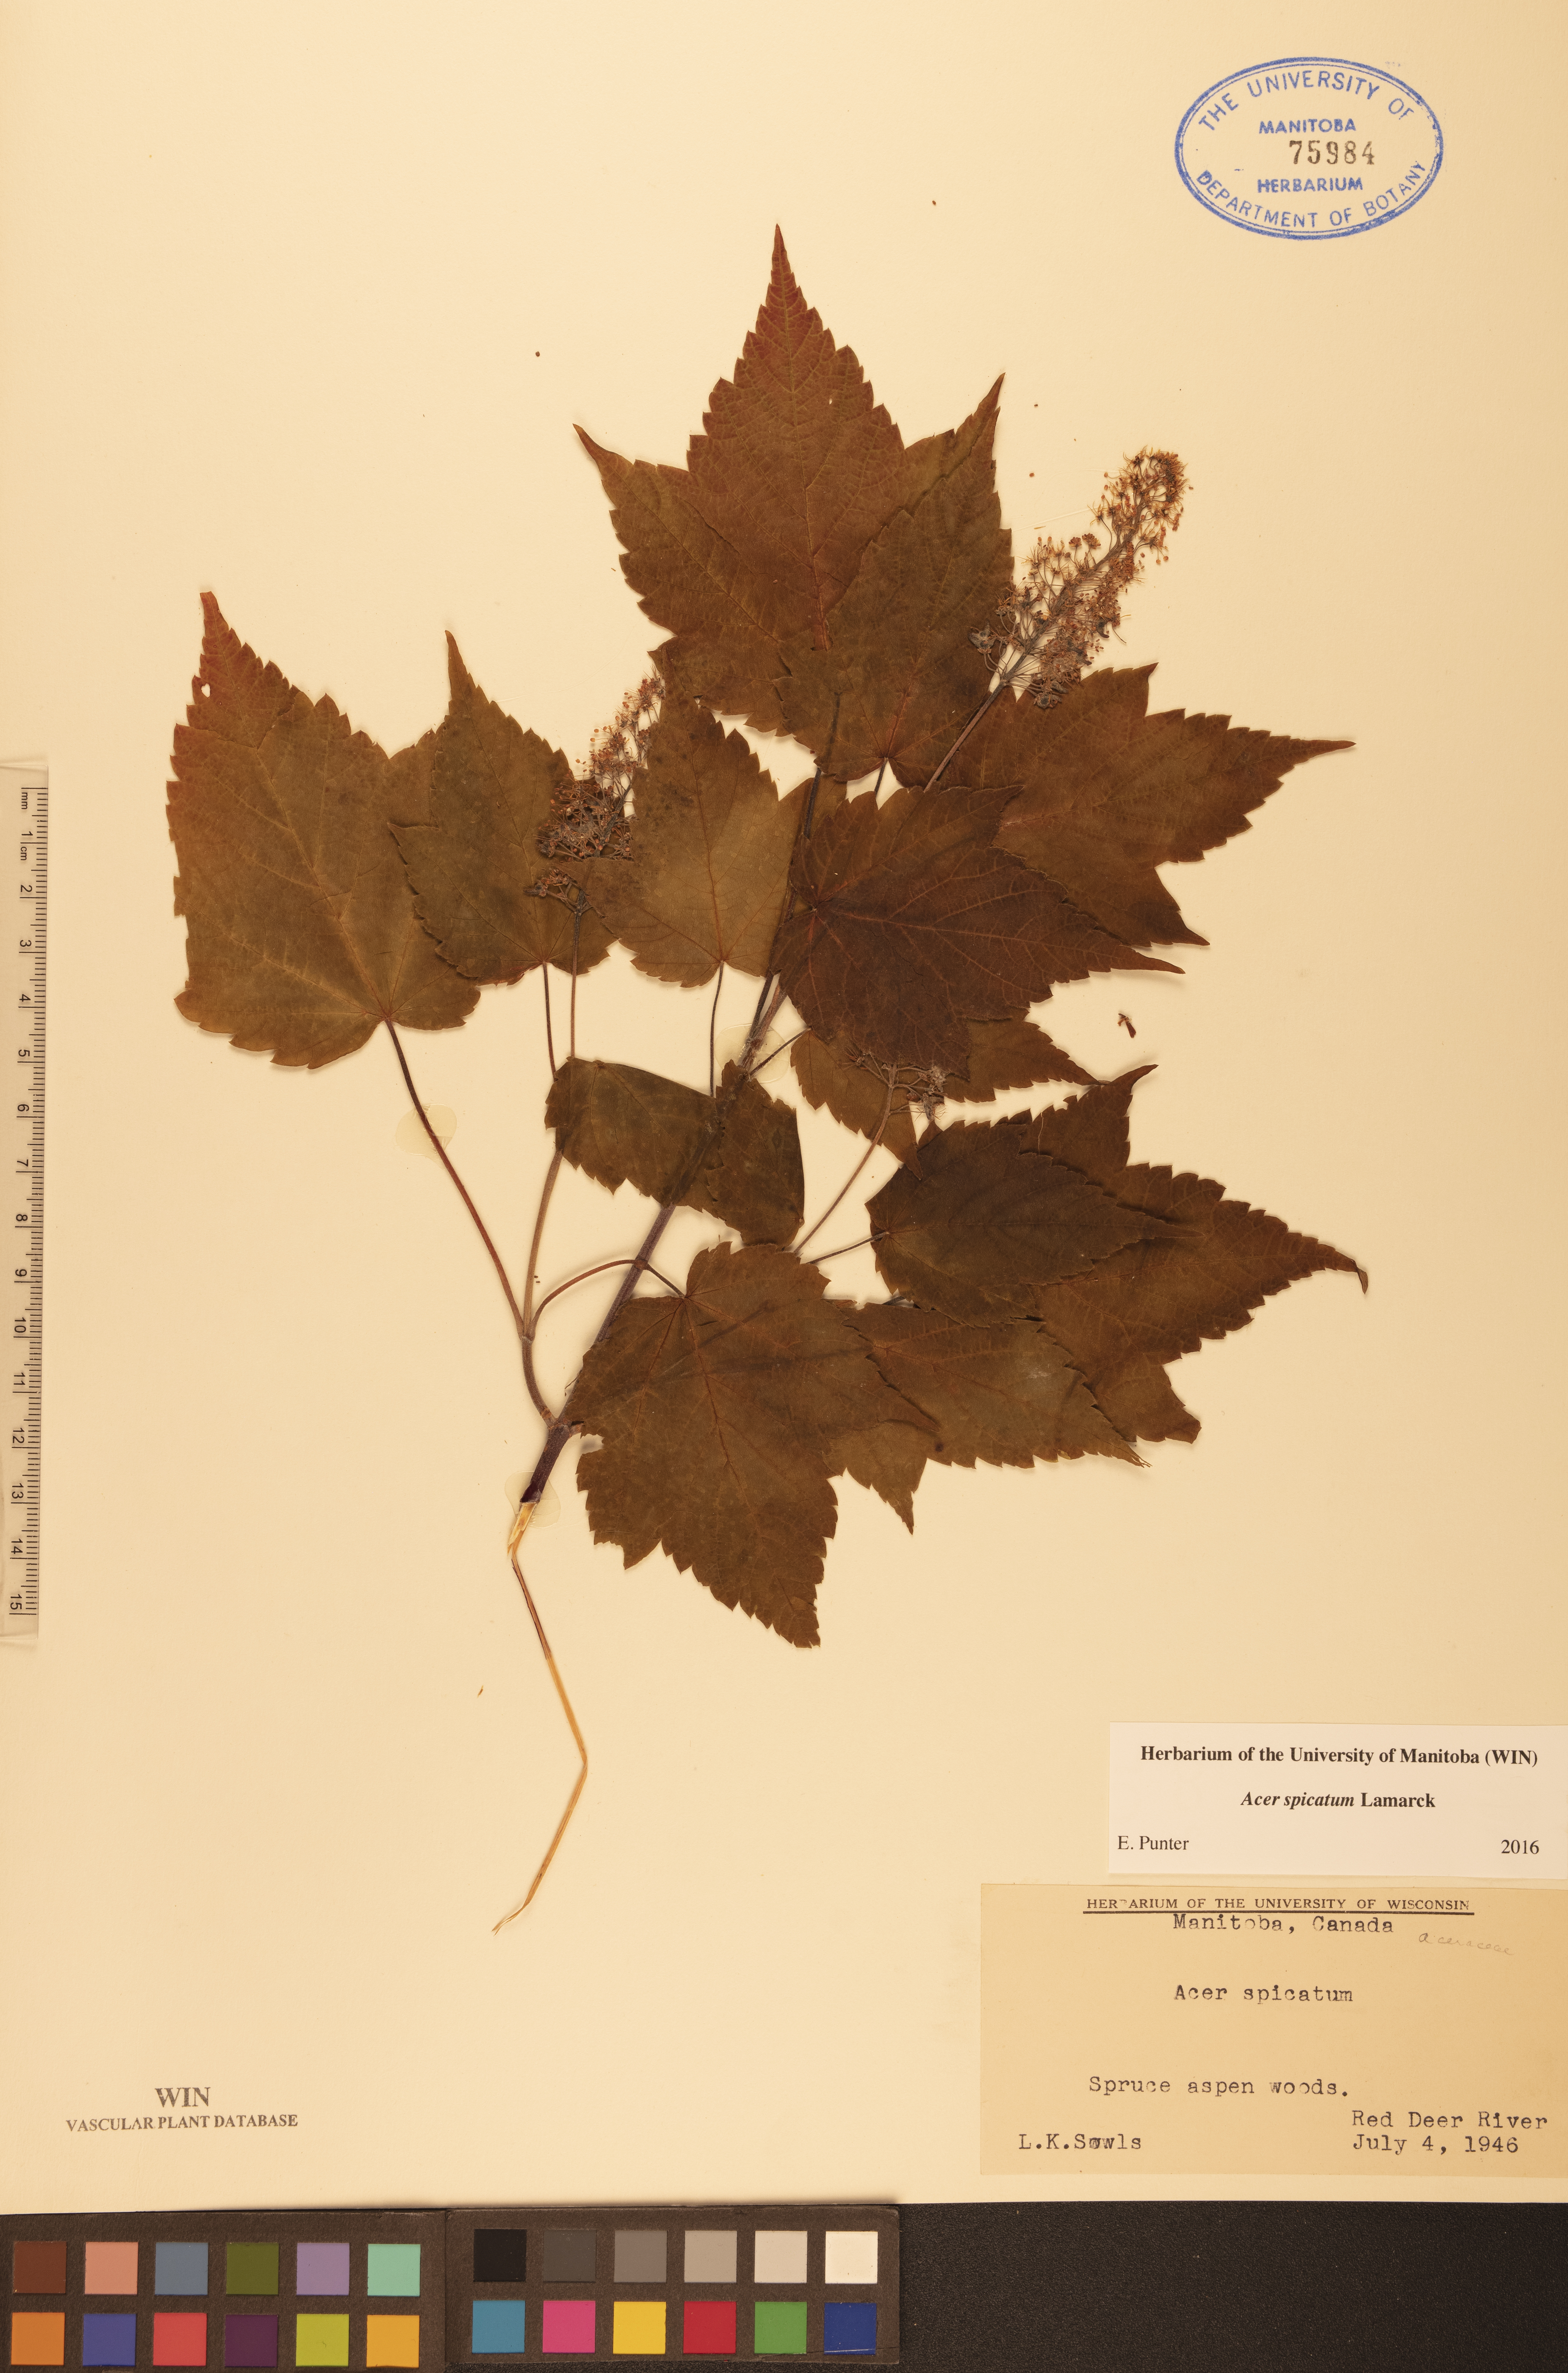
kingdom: Plantae
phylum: Tracheophyta
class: Magnoliopsida
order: Sapindales
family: Sapindaceae
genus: Acer
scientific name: Acer spicatum
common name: Mountain maple
